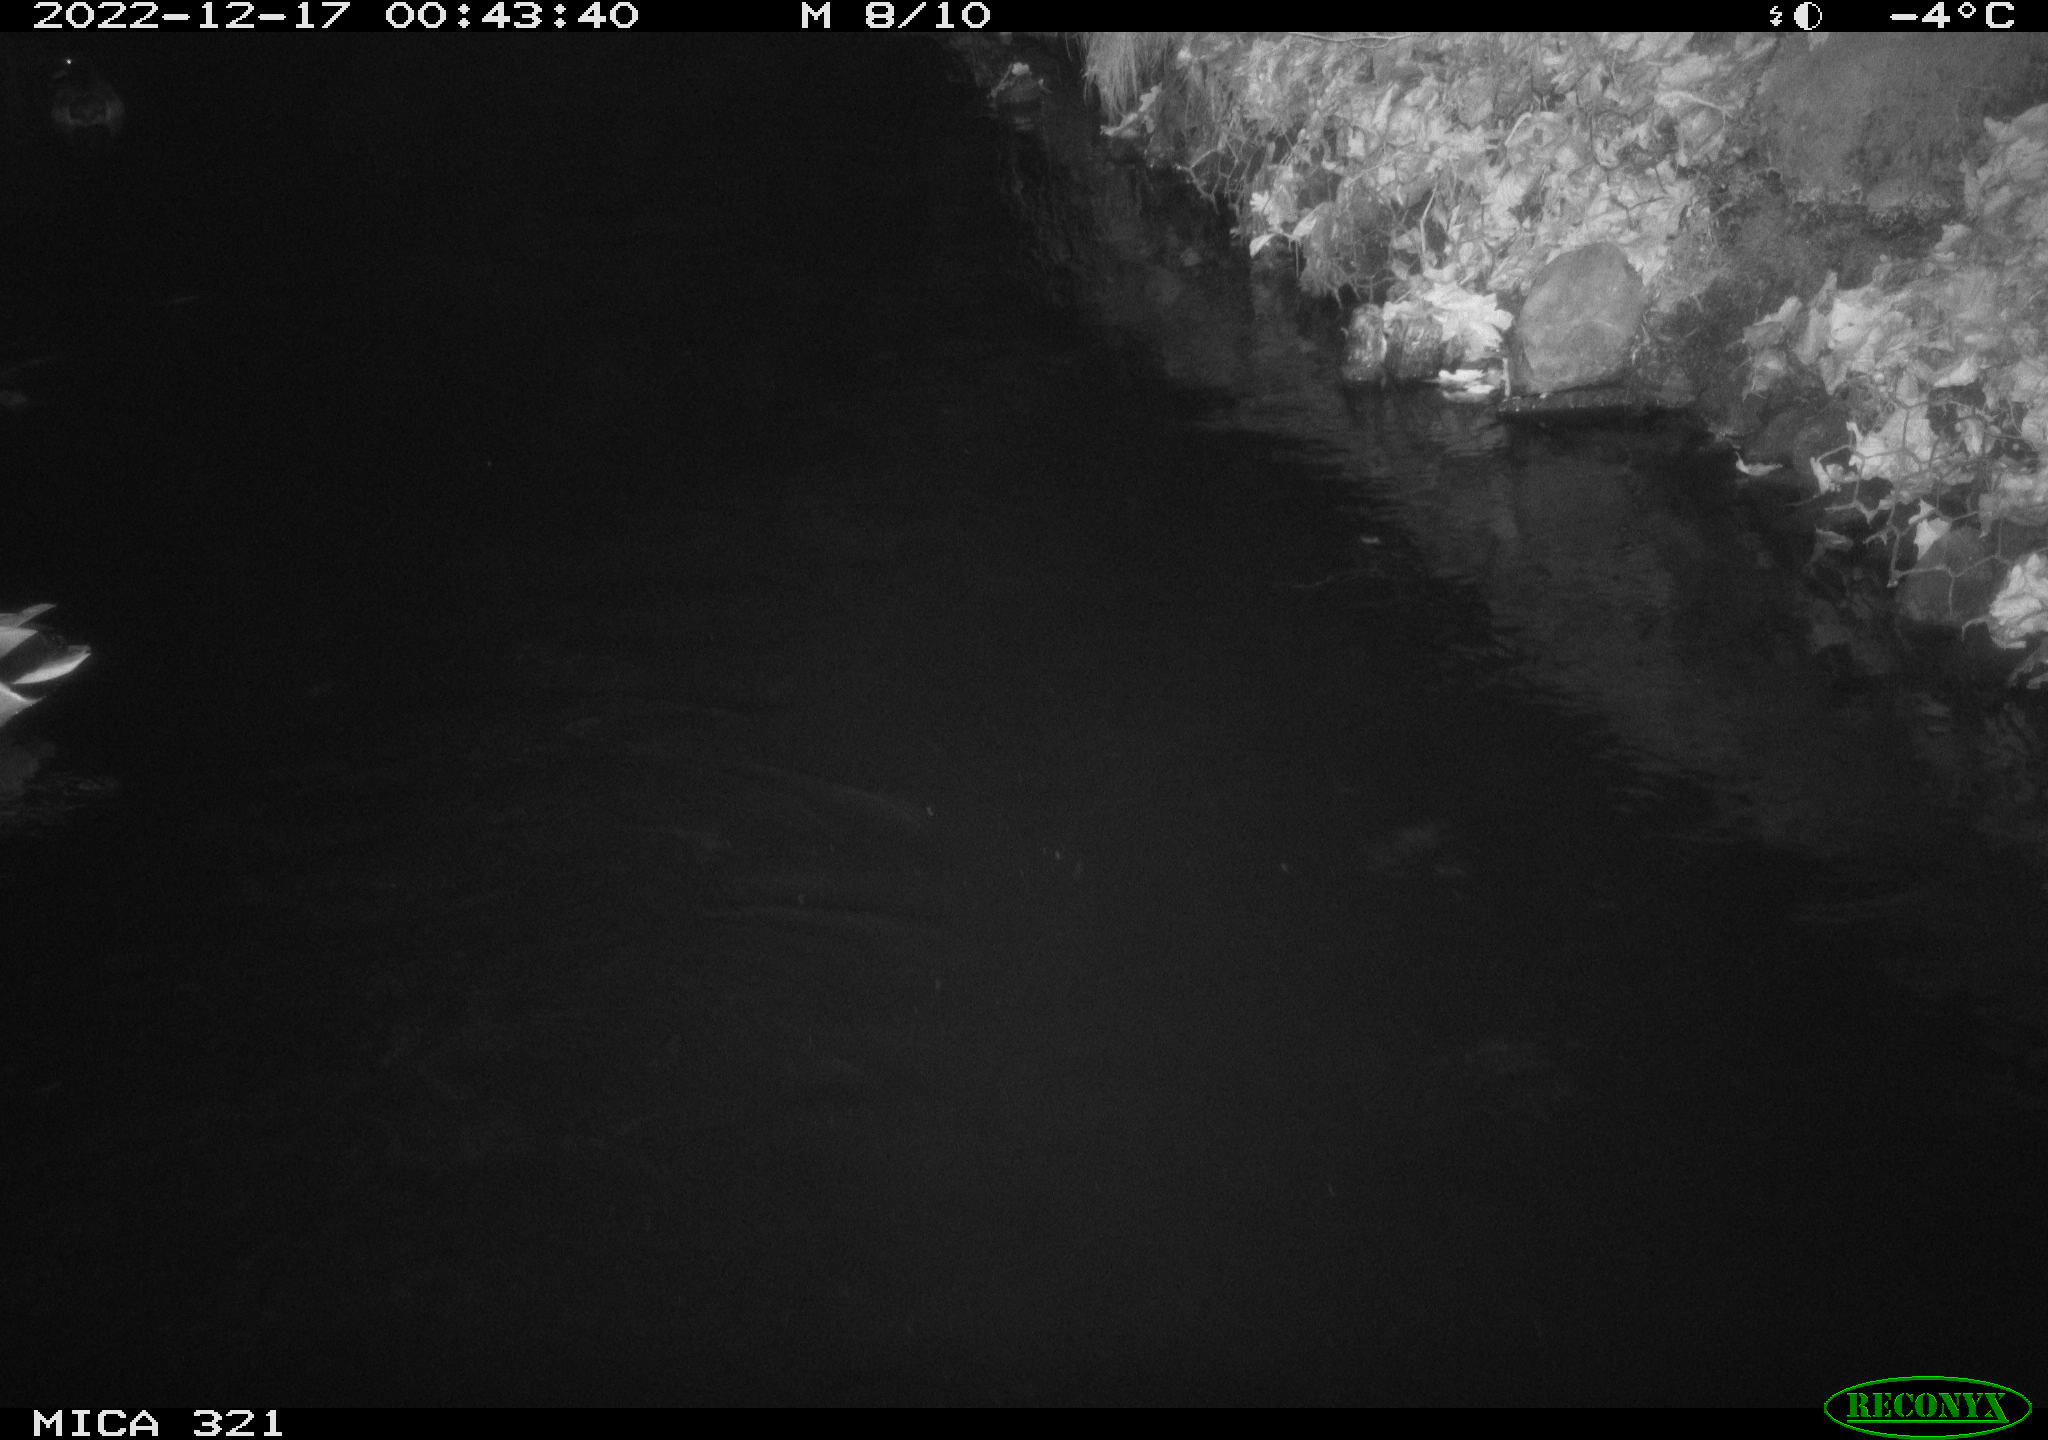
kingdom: Animalia
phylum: Chordata
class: Aves
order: Anseriformes
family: Anatidae
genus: Anas
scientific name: Anas
